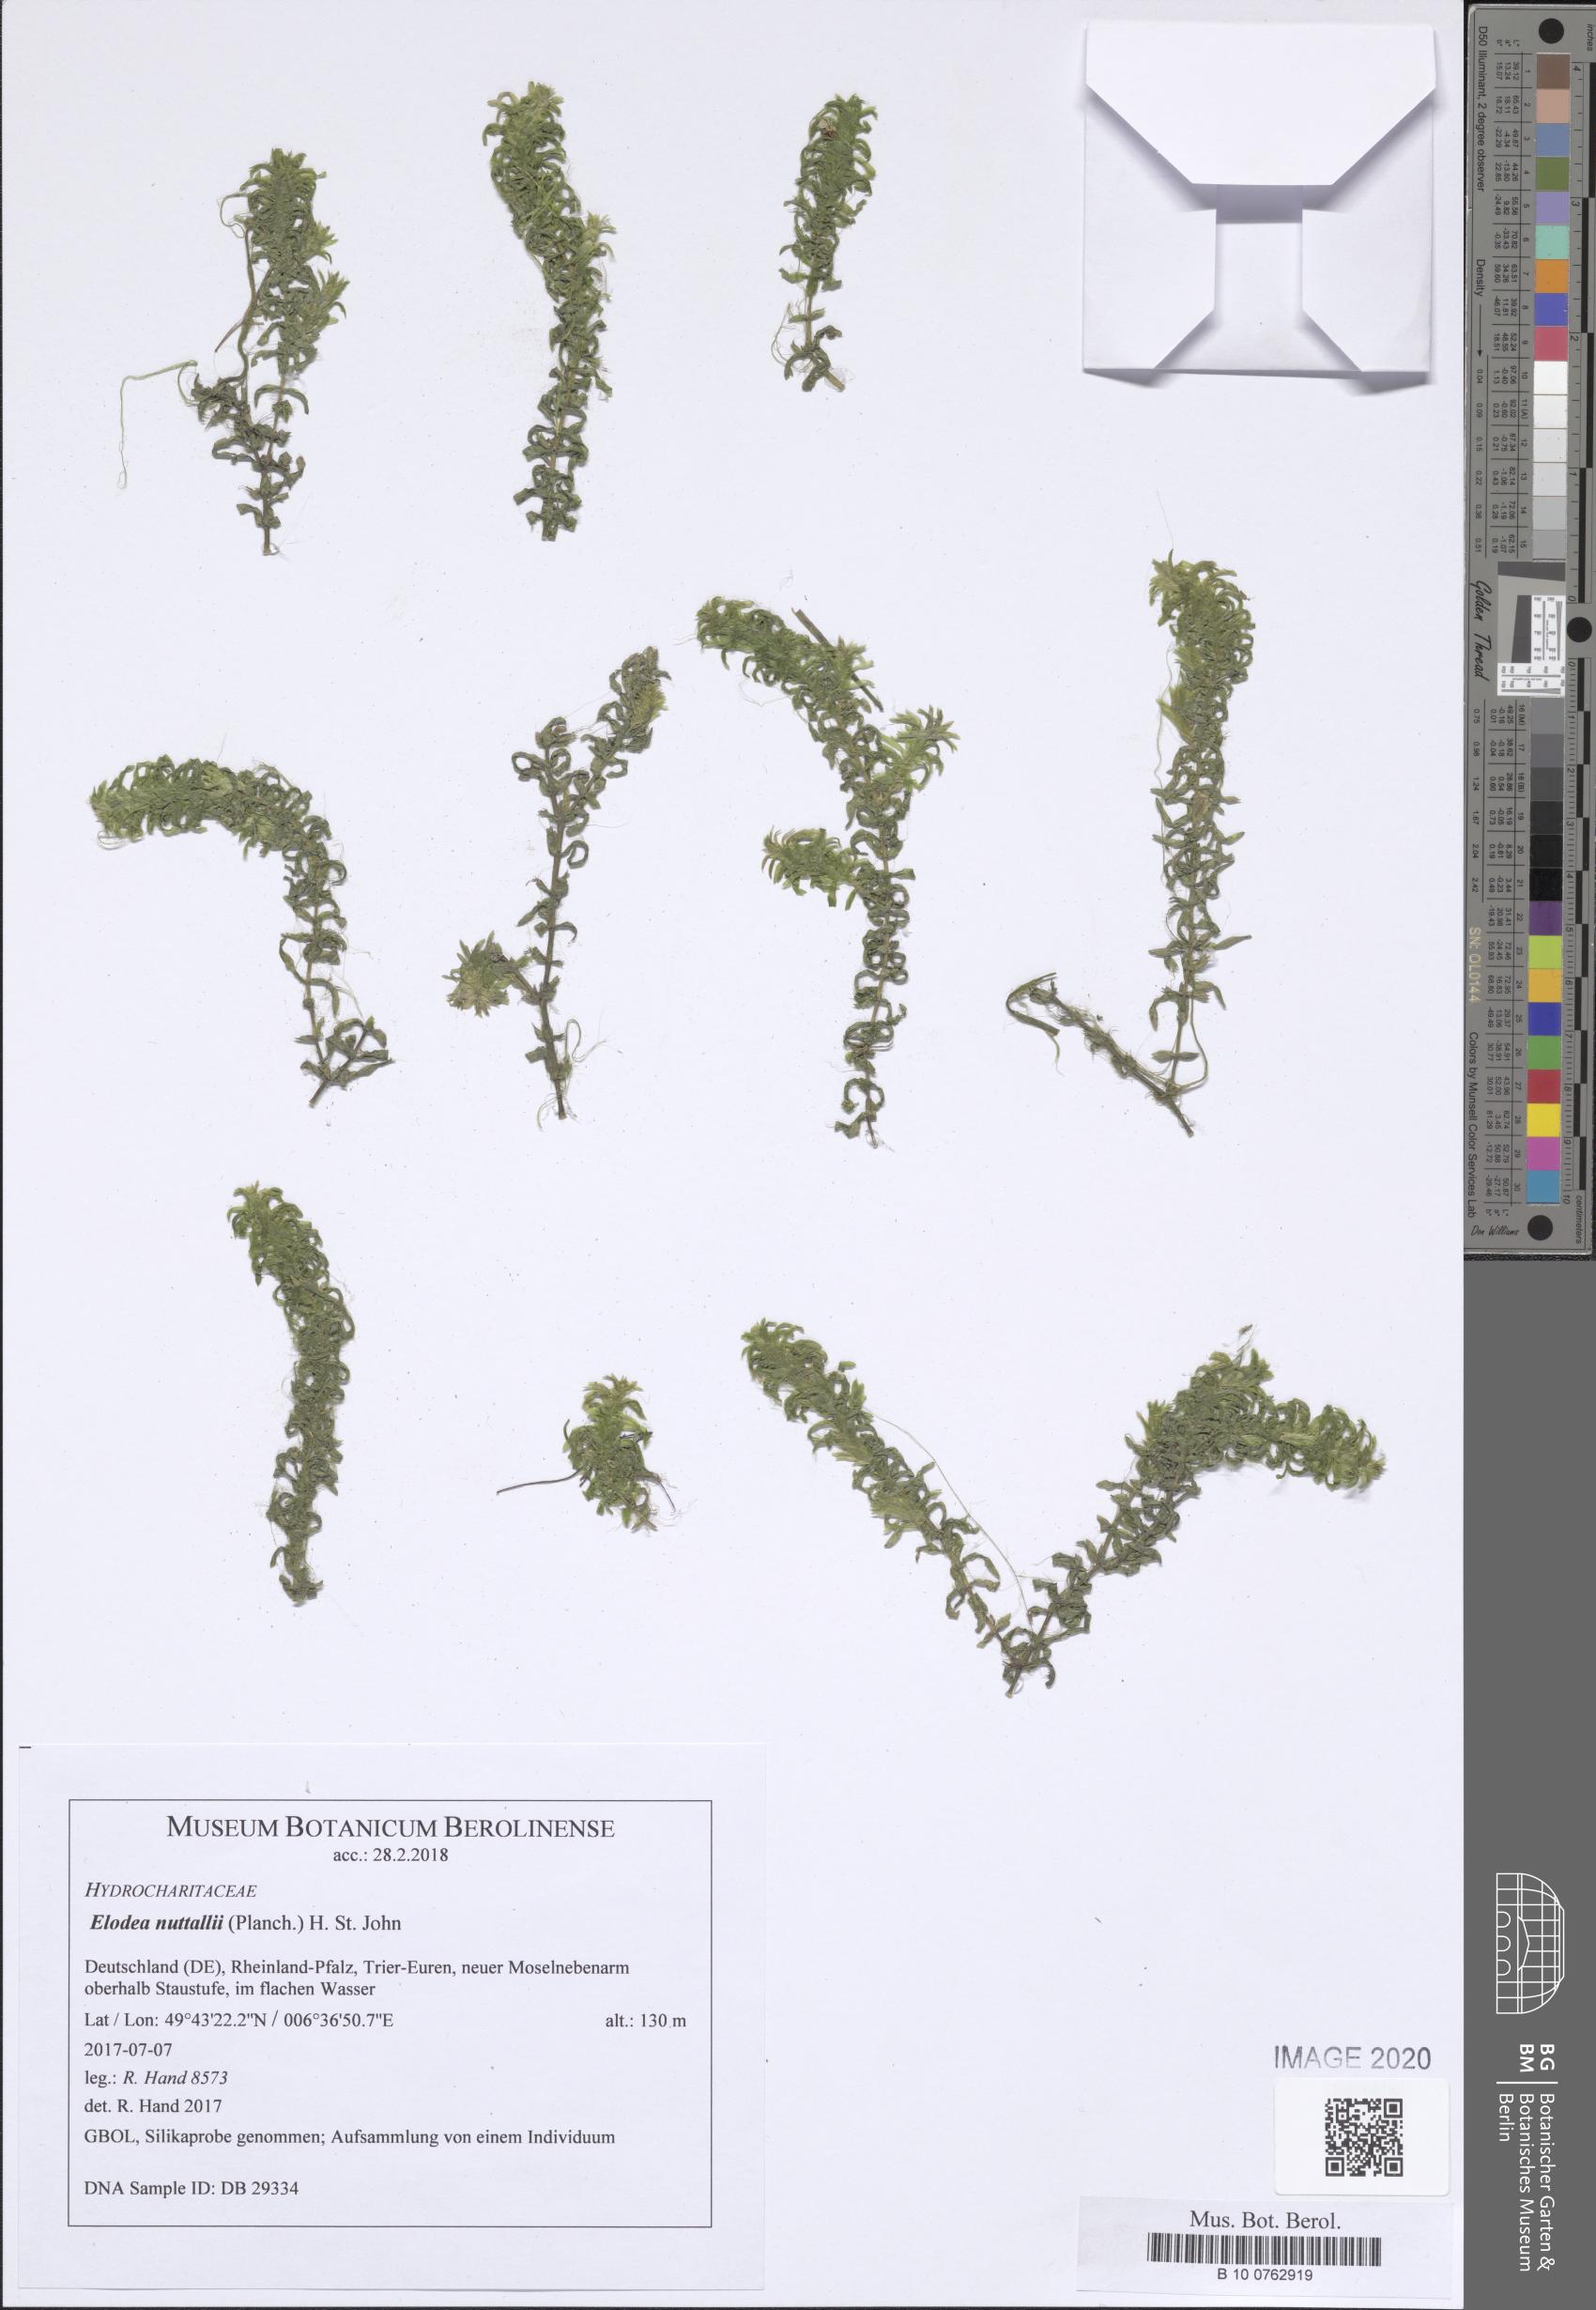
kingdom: Plantae
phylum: Tracheophyta
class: Liliopsida
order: Alismatales
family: Hydrocharitaceae
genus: Elodea
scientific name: Elodea nuttallii
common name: Nuttall's waterweed
